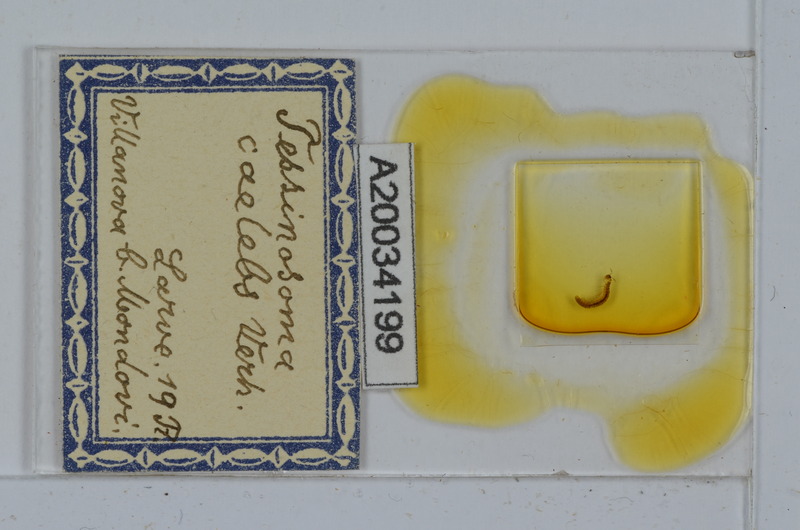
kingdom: Animalia
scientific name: Animalia
